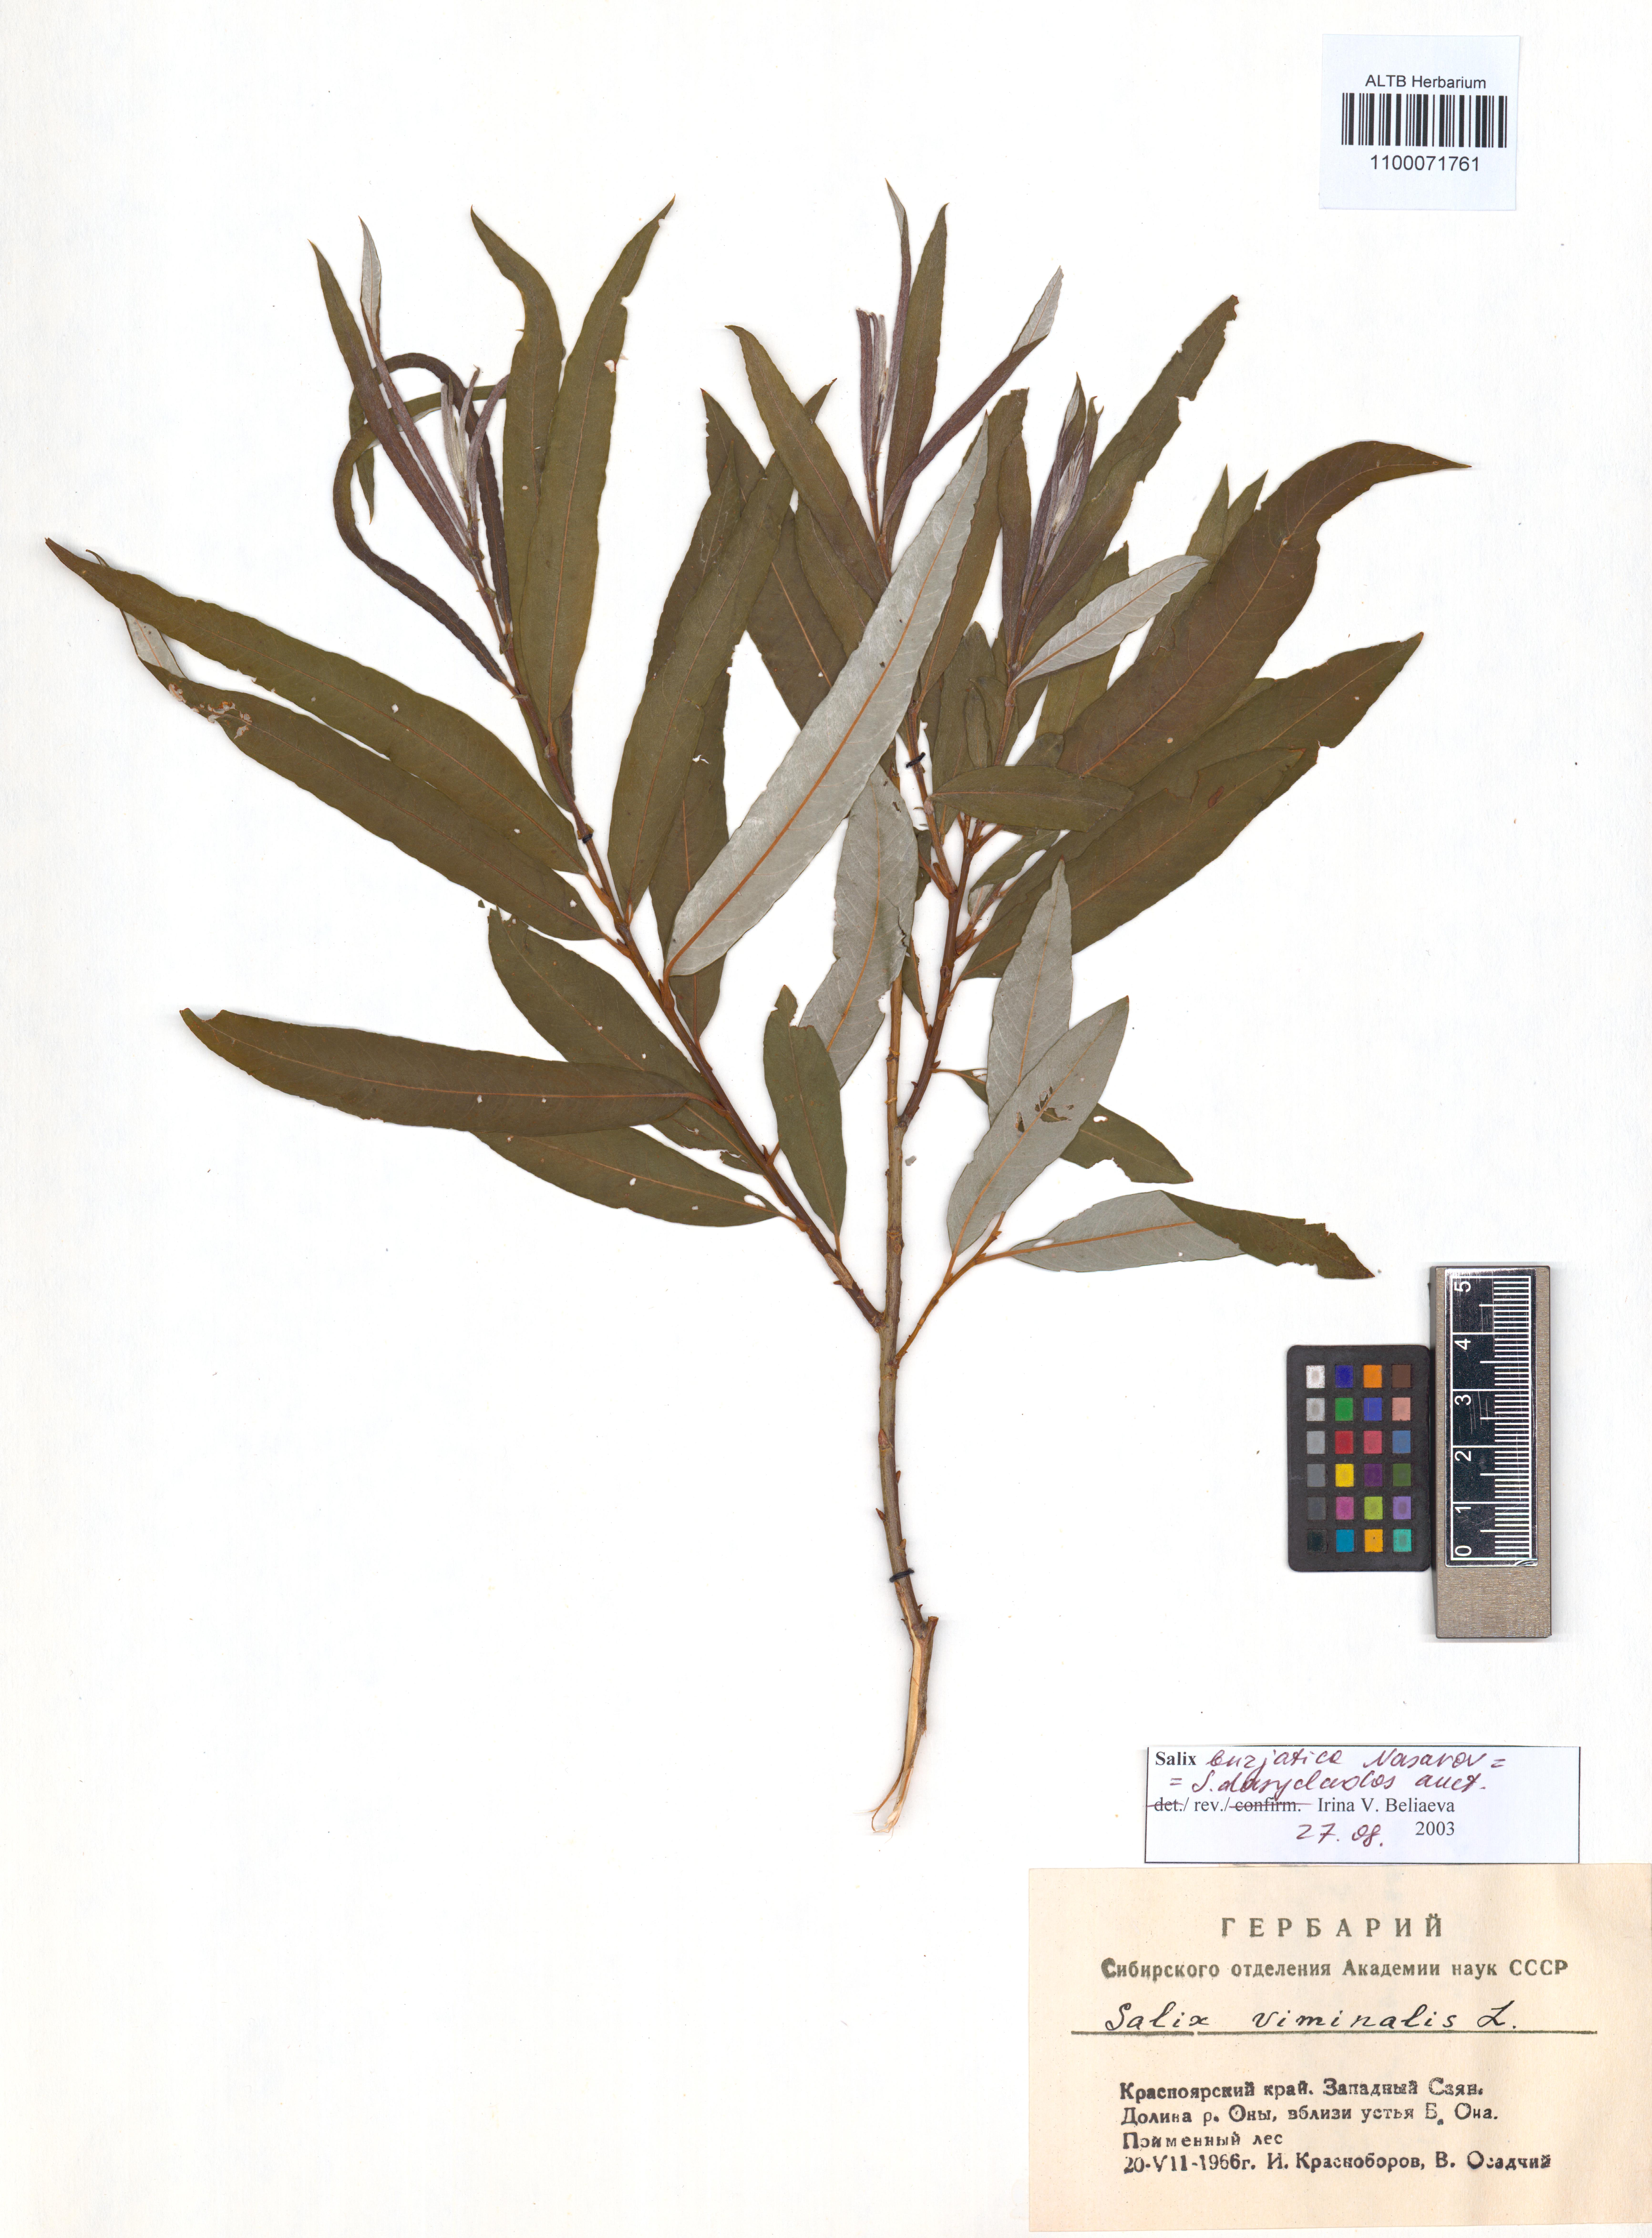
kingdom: Plantae
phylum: Tracheophyta
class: Magnoliopsida
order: Malpighiales
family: Salicaceae
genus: Salix
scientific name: Salix gmelinii
